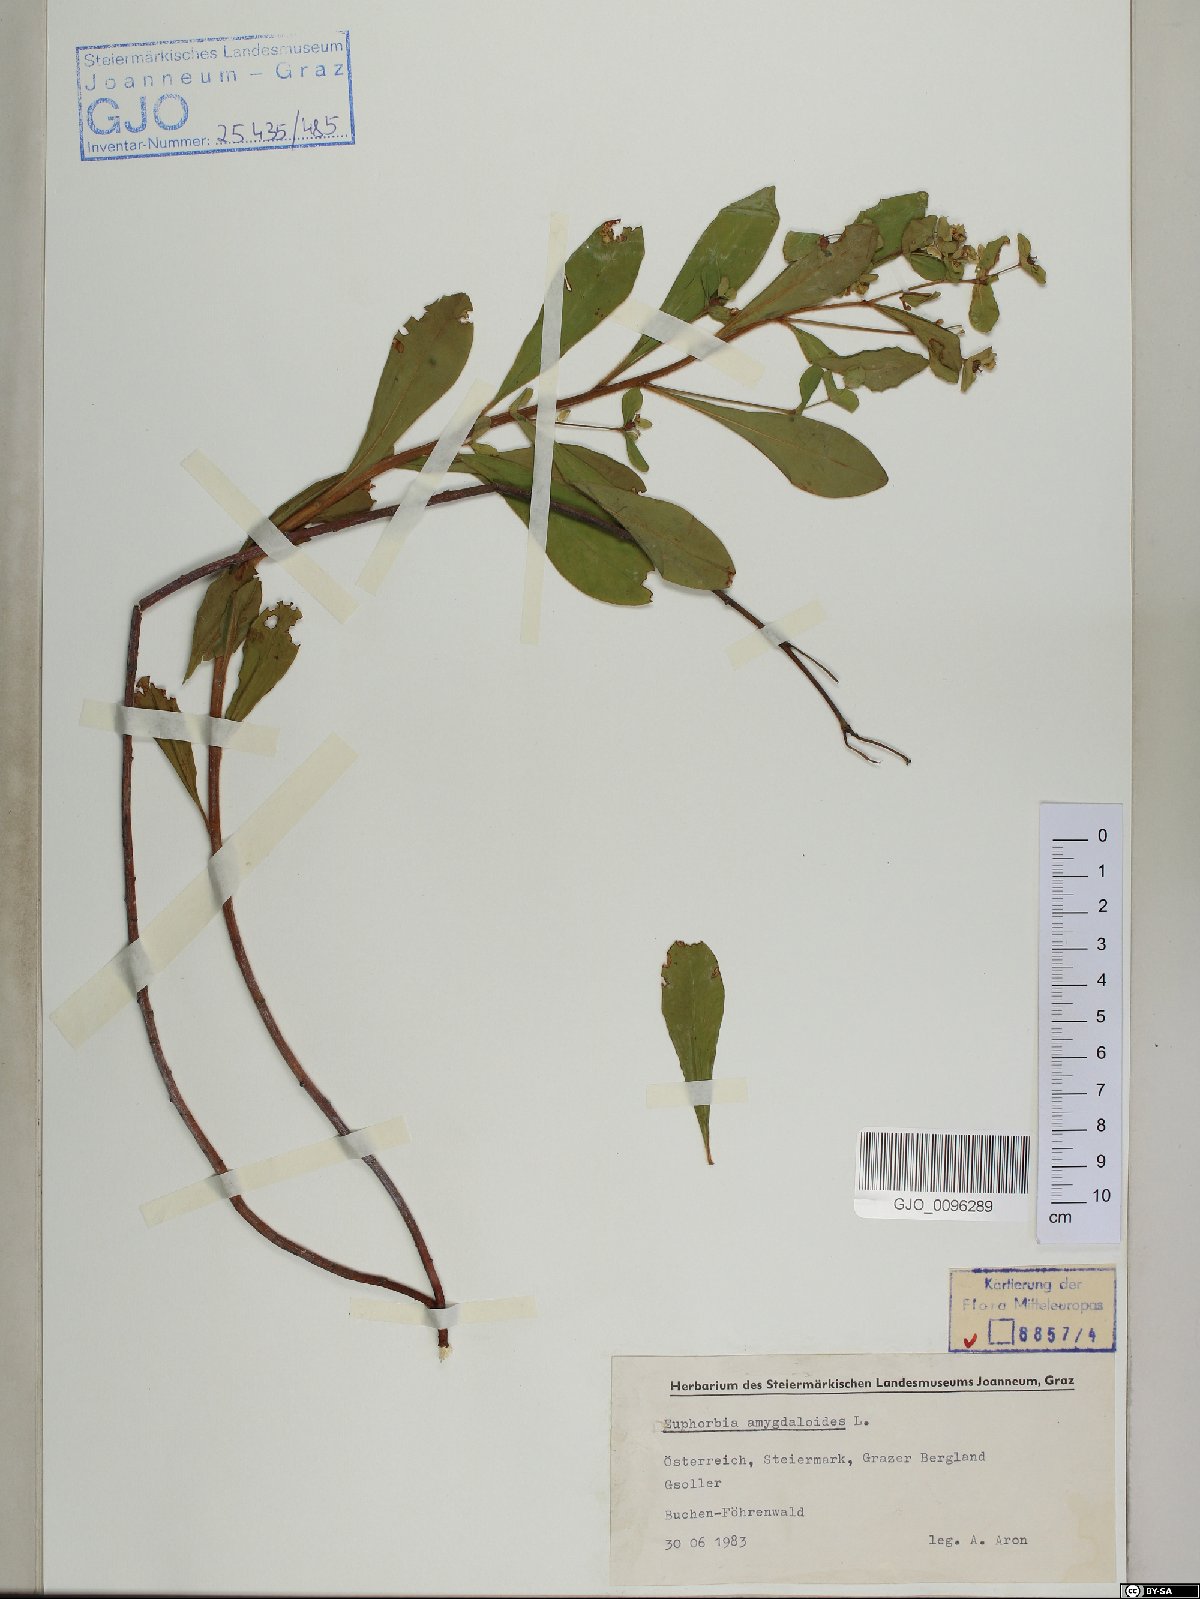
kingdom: Plantae
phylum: Tracheophyta
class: Magnoliopsida
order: Malpighiales
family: Euphorbiaceae
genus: Euphorbia
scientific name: Euphorbia amygdaloides
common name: Wood spurge
